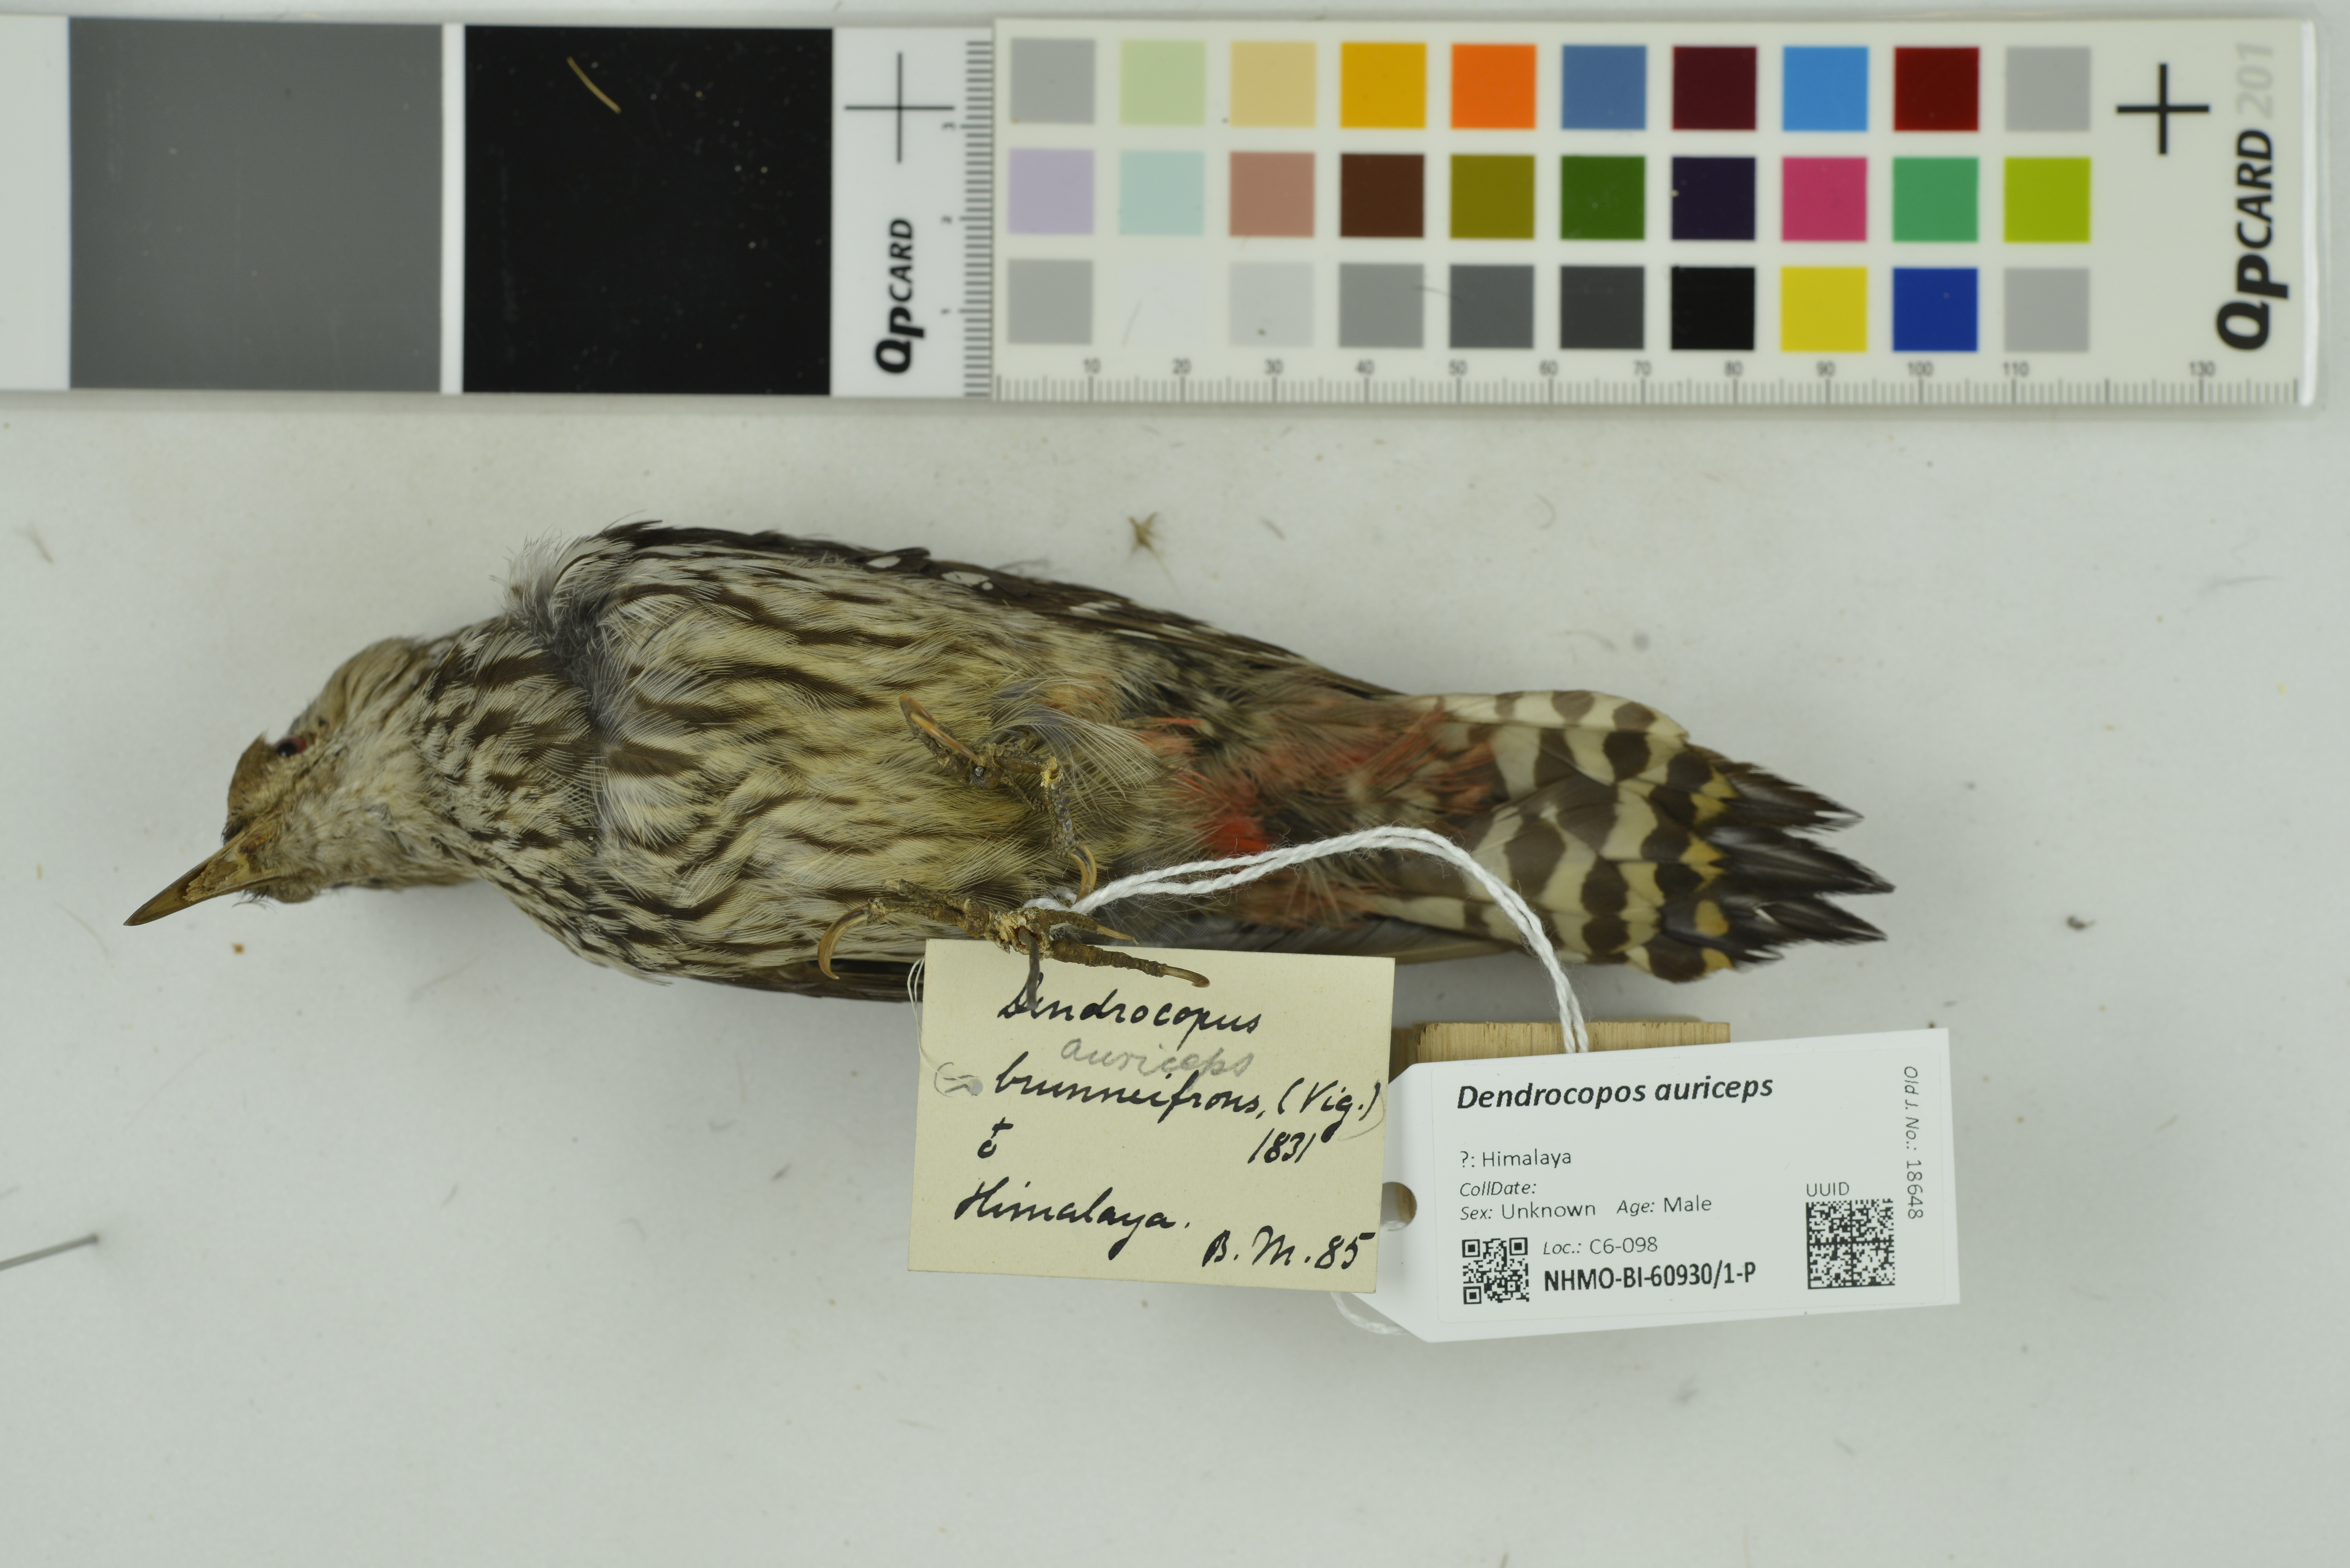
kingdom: Animalia
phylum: Chordata
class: Aves
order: Piciformes
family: Picidae
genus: Dendrocoptes
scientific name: Dendrocoptes auriceps
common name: Brown-fronted woodpecker
